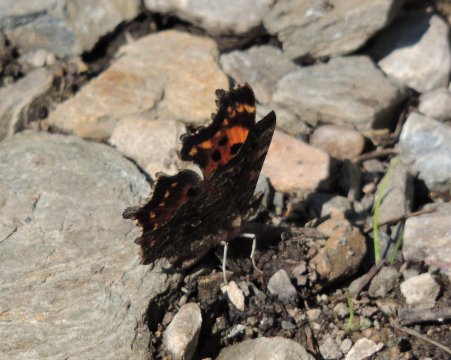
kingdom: Animalia
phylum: Arthropoda
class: Insecta
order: Lepidoptera
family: Nymphalidae
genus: Polygonia
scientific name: Polygonia faunus
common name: Green Comma
